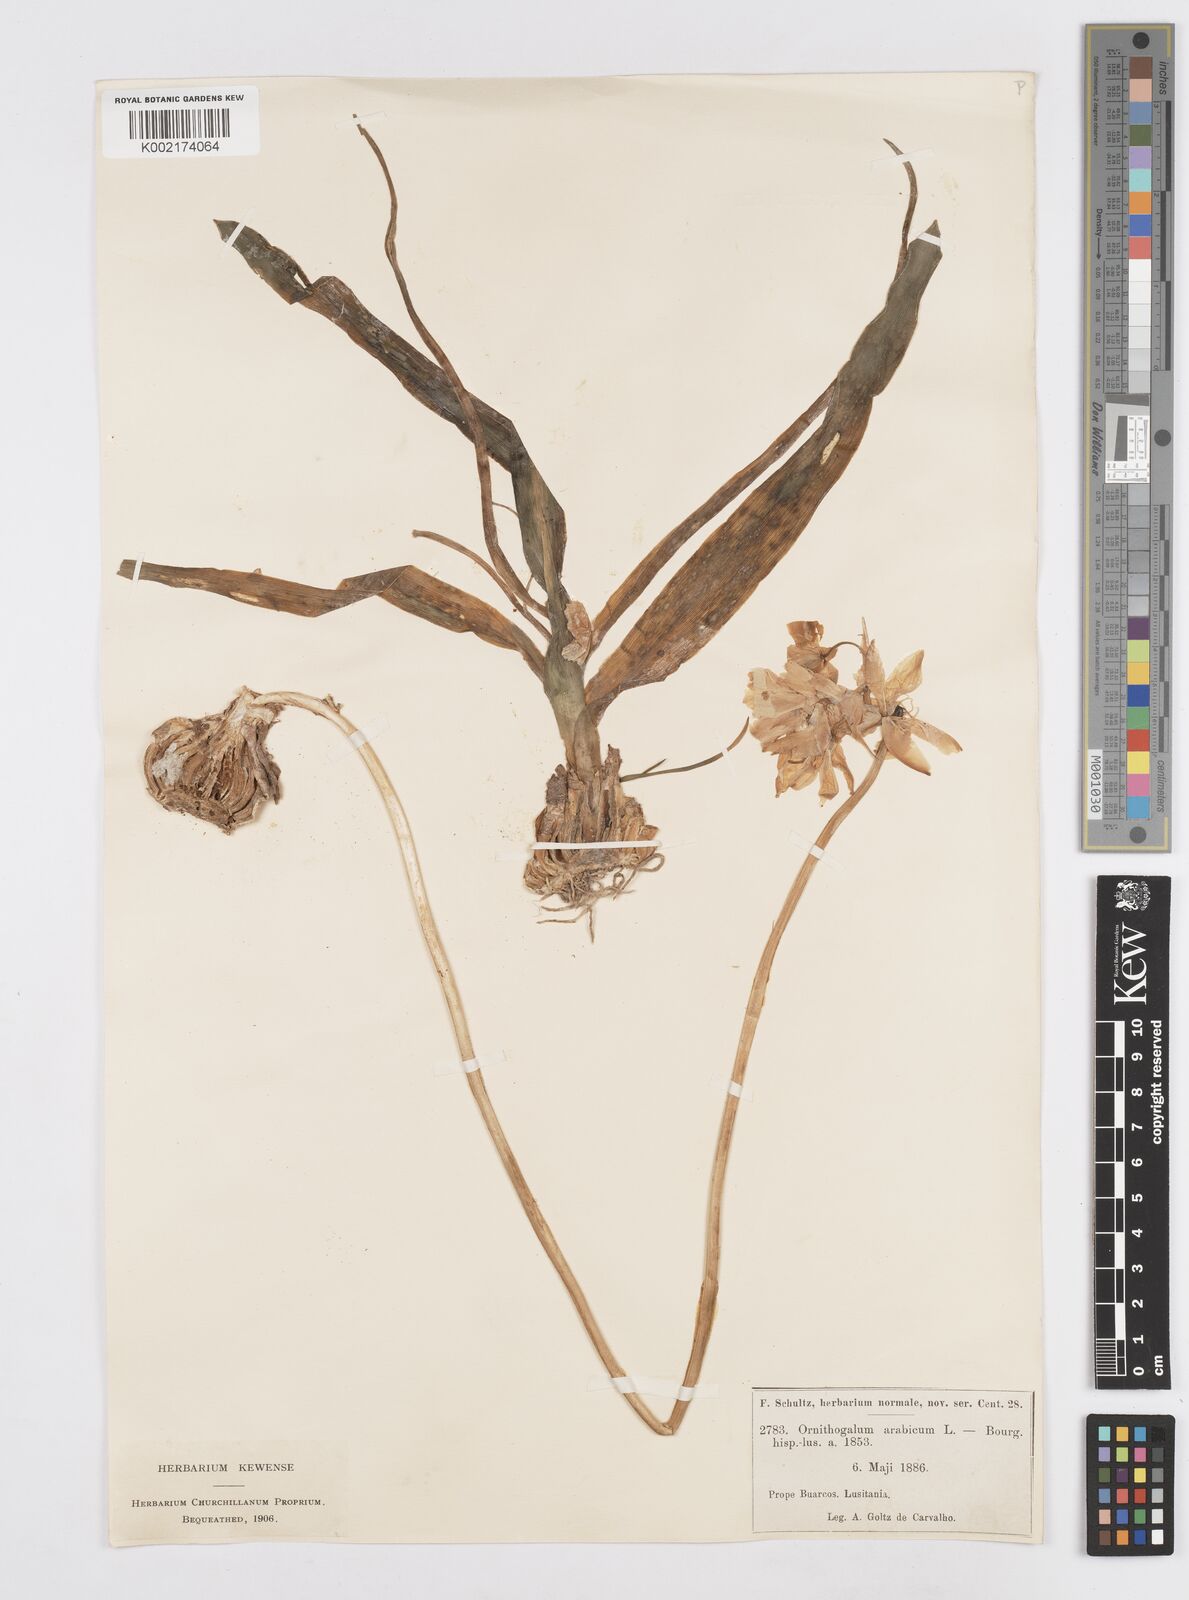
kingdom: Plantae
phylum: Tracheophyta
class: Liliopsida
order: Asparagales
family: Asparagaceae
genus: Ornithogalum
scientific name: Ornithogalum arabicum
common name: Arabian starflower
